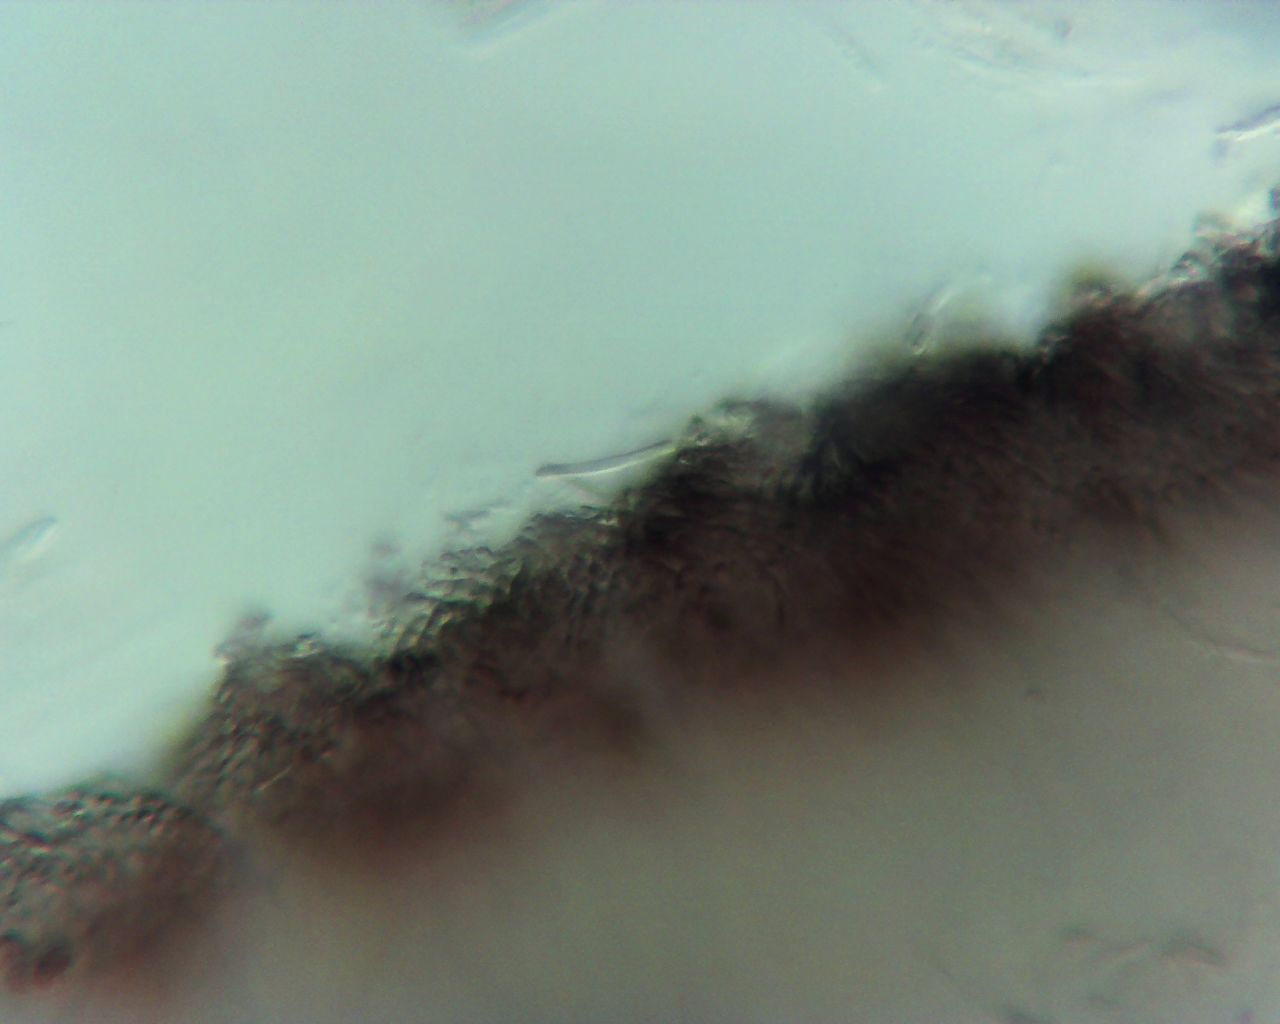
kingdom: Fungi
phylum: Ascomycota
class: Leotiomycetes
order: Helotiales
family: Helotiaceae
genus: Cyathicula
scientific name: Cyathicula cyathoidea
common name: pokal-stilkskive
